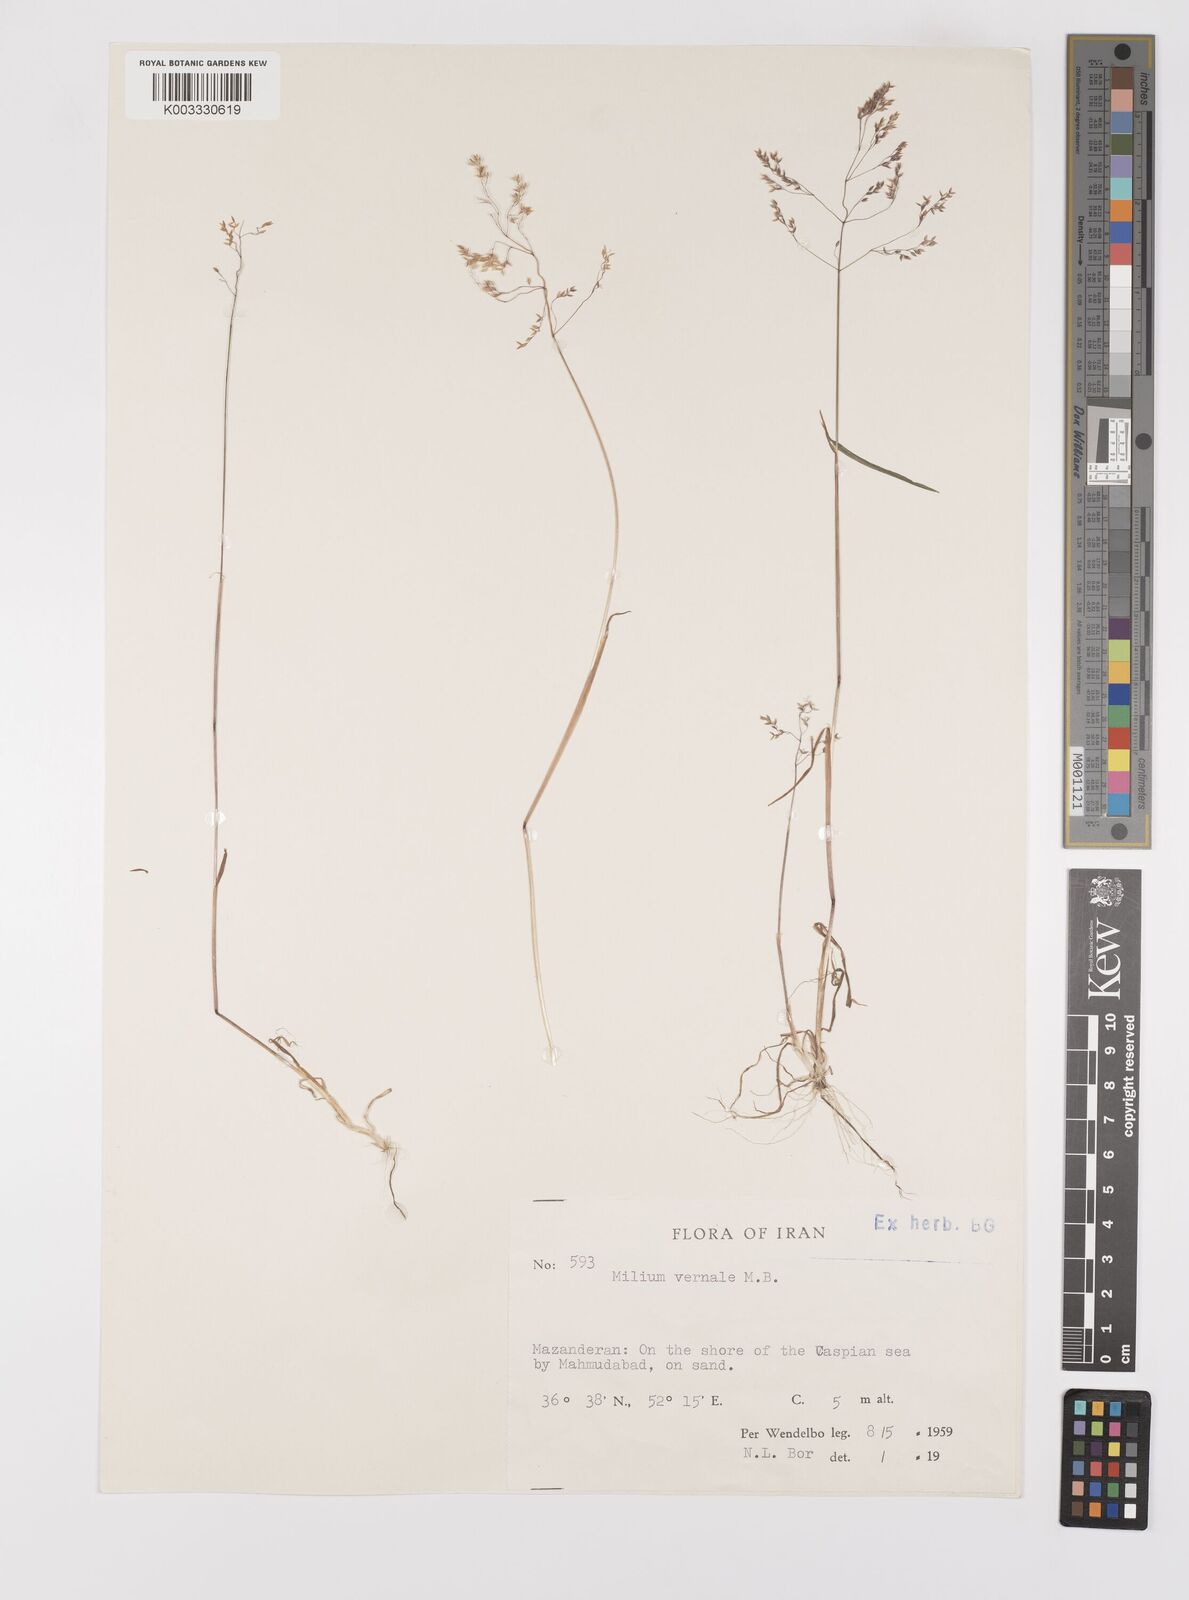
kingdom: Plantae
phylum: Tracheophyta
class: Liliopsida
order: Poales
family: Poaceae
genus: Milium
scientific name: Milium vernale
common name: Early millet
